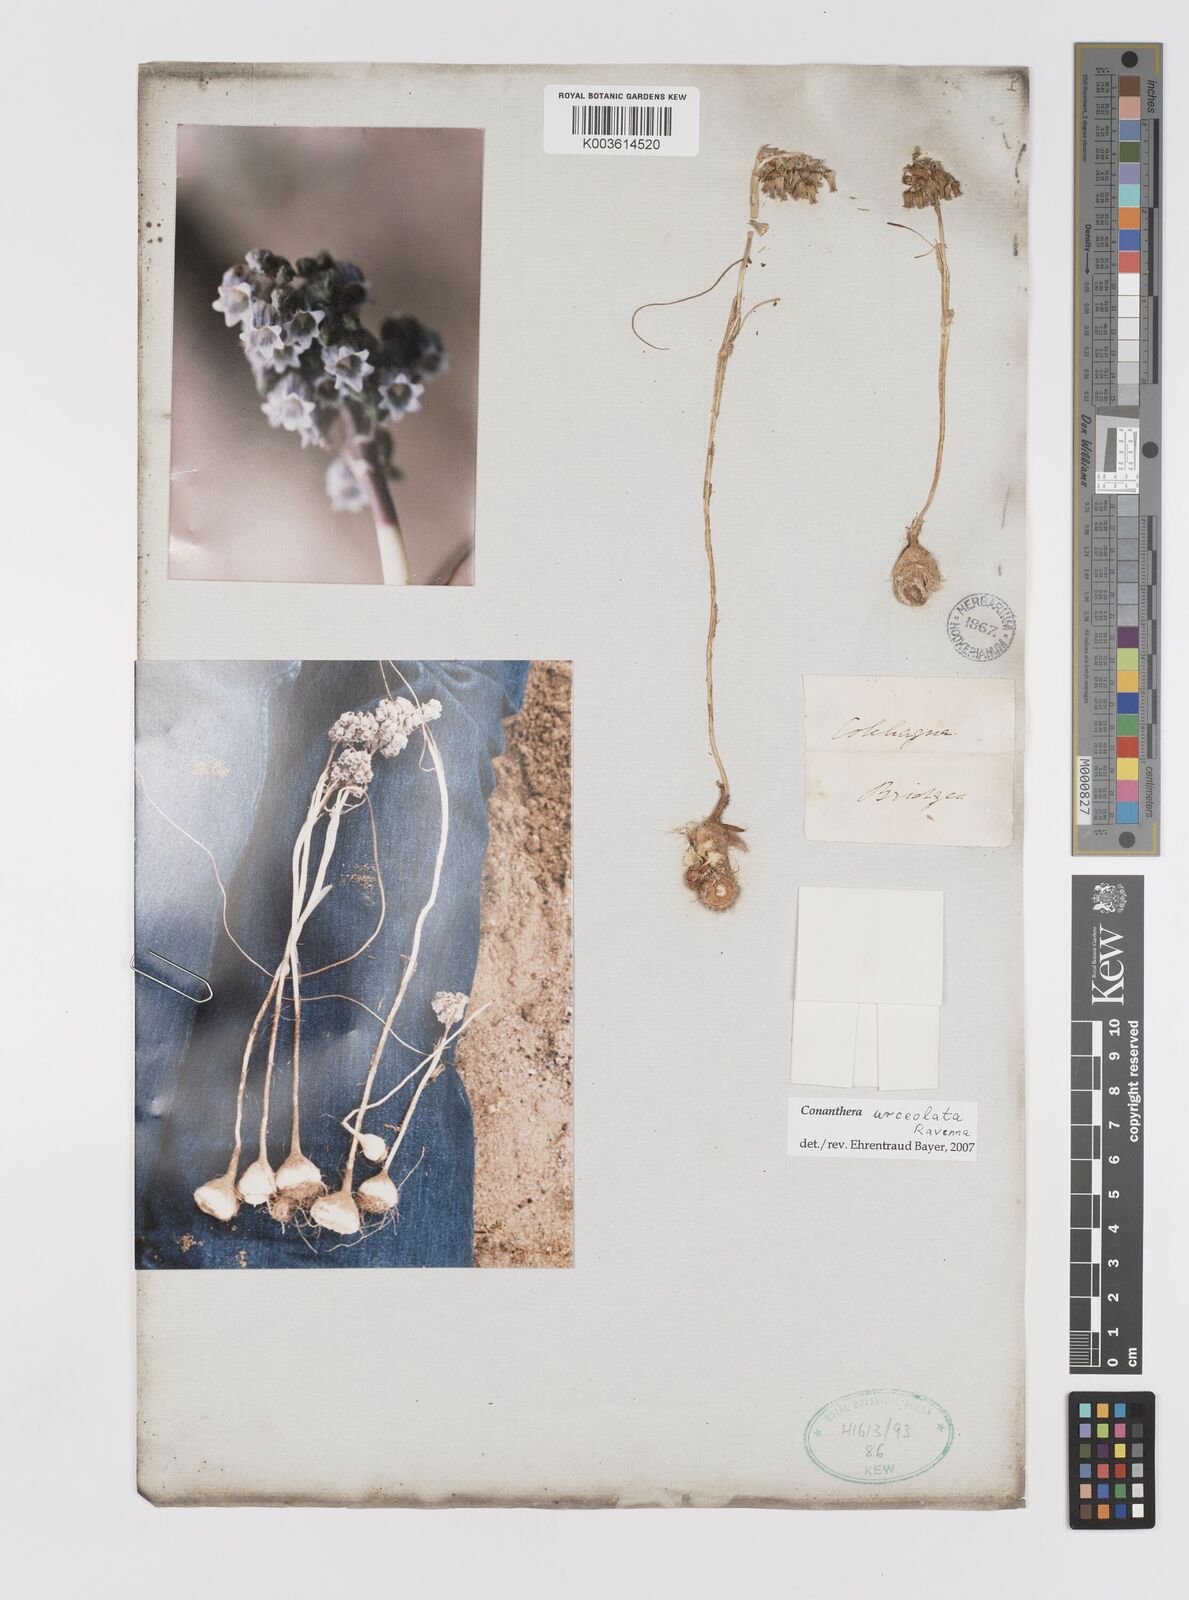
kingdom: Plantae
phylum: Tracheophyta
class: Liliopsida
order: Asparagales
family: Tecophilaeaceae
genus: Conanthera
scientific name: Conanthera campanulata
